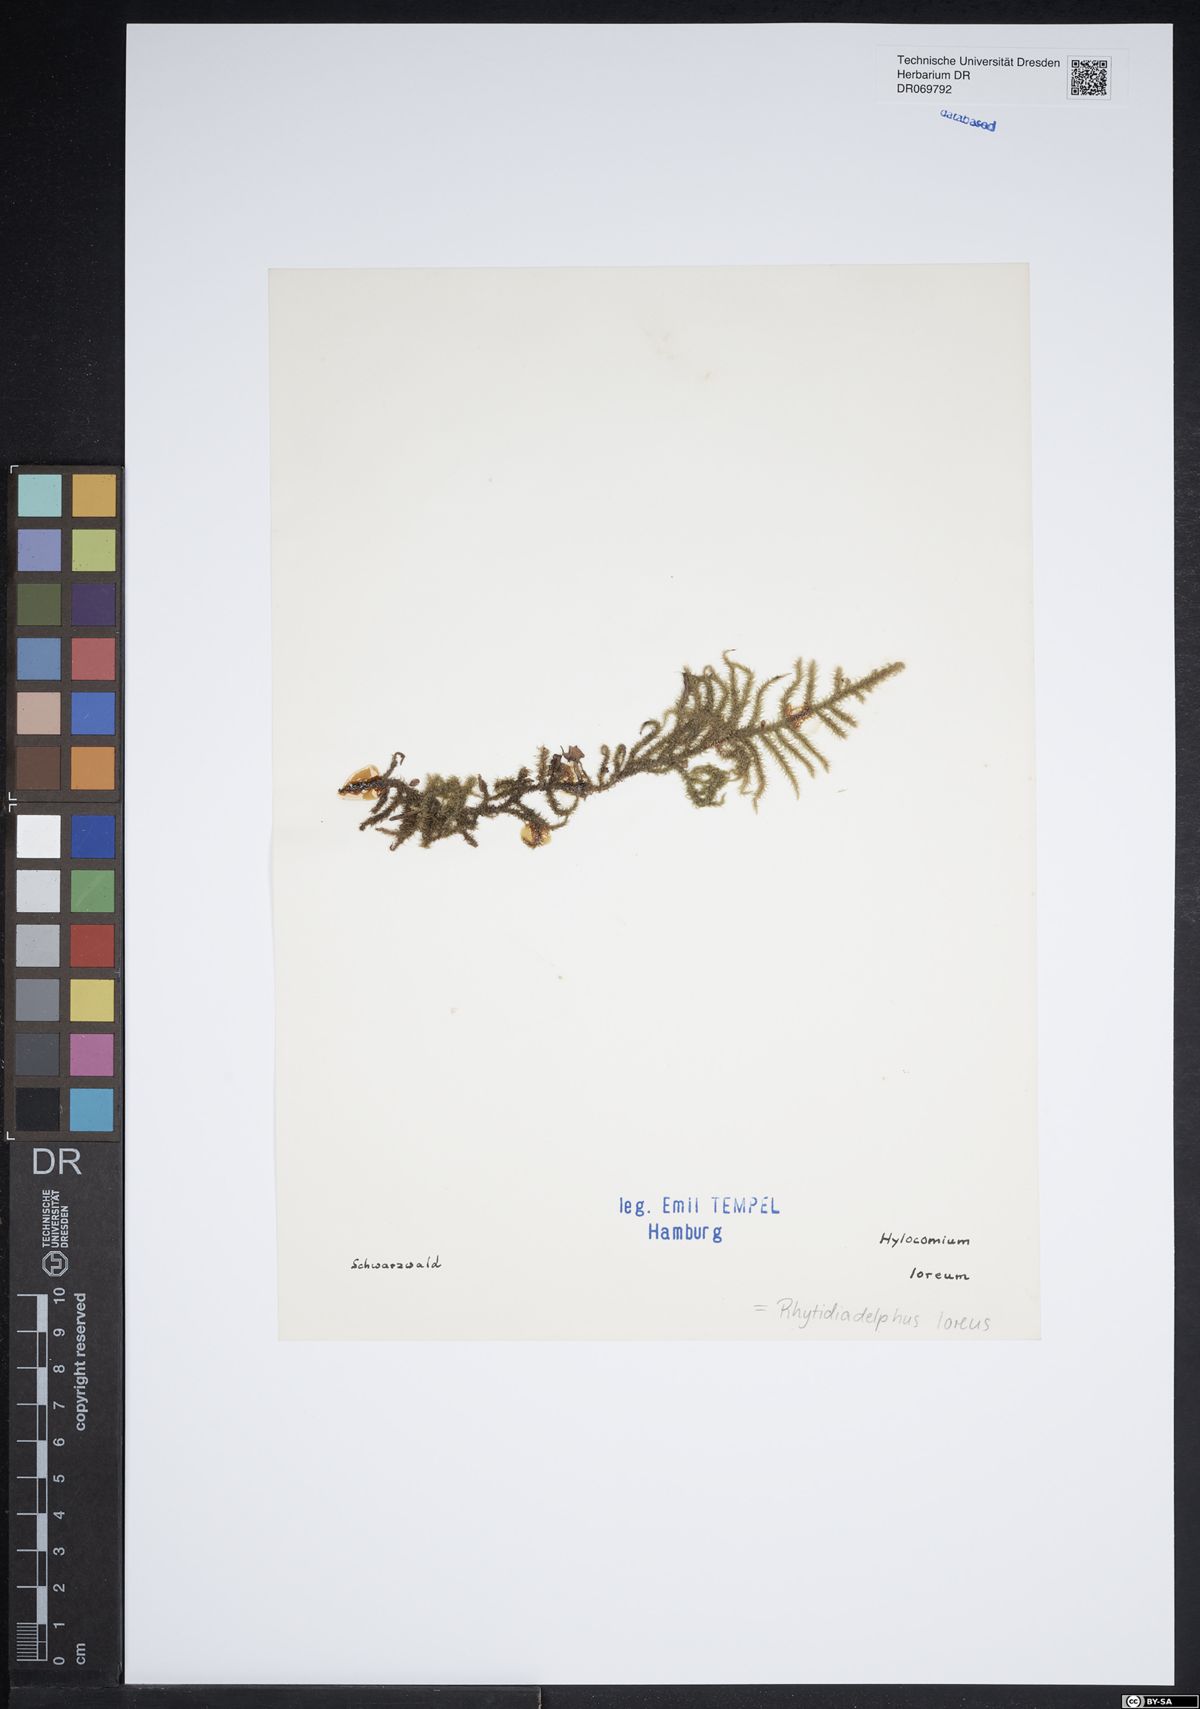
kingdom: Plantae
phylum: Bryophyta
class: Bryopsida
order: Hypnales
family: Hylocomiaceae
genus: Rhytidiadelphus
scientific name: Rhytidiadelphus loreus
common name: Lanky moss
